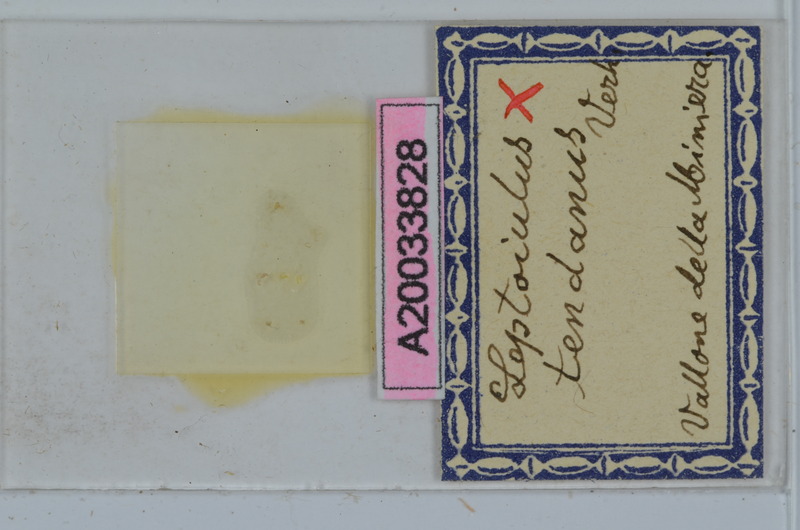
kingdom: Animalia
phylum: Arthropoda
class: Diplopoda
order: Julida
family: Julidae
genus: Leptoiulus
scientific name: Leptoiulus tendanus
